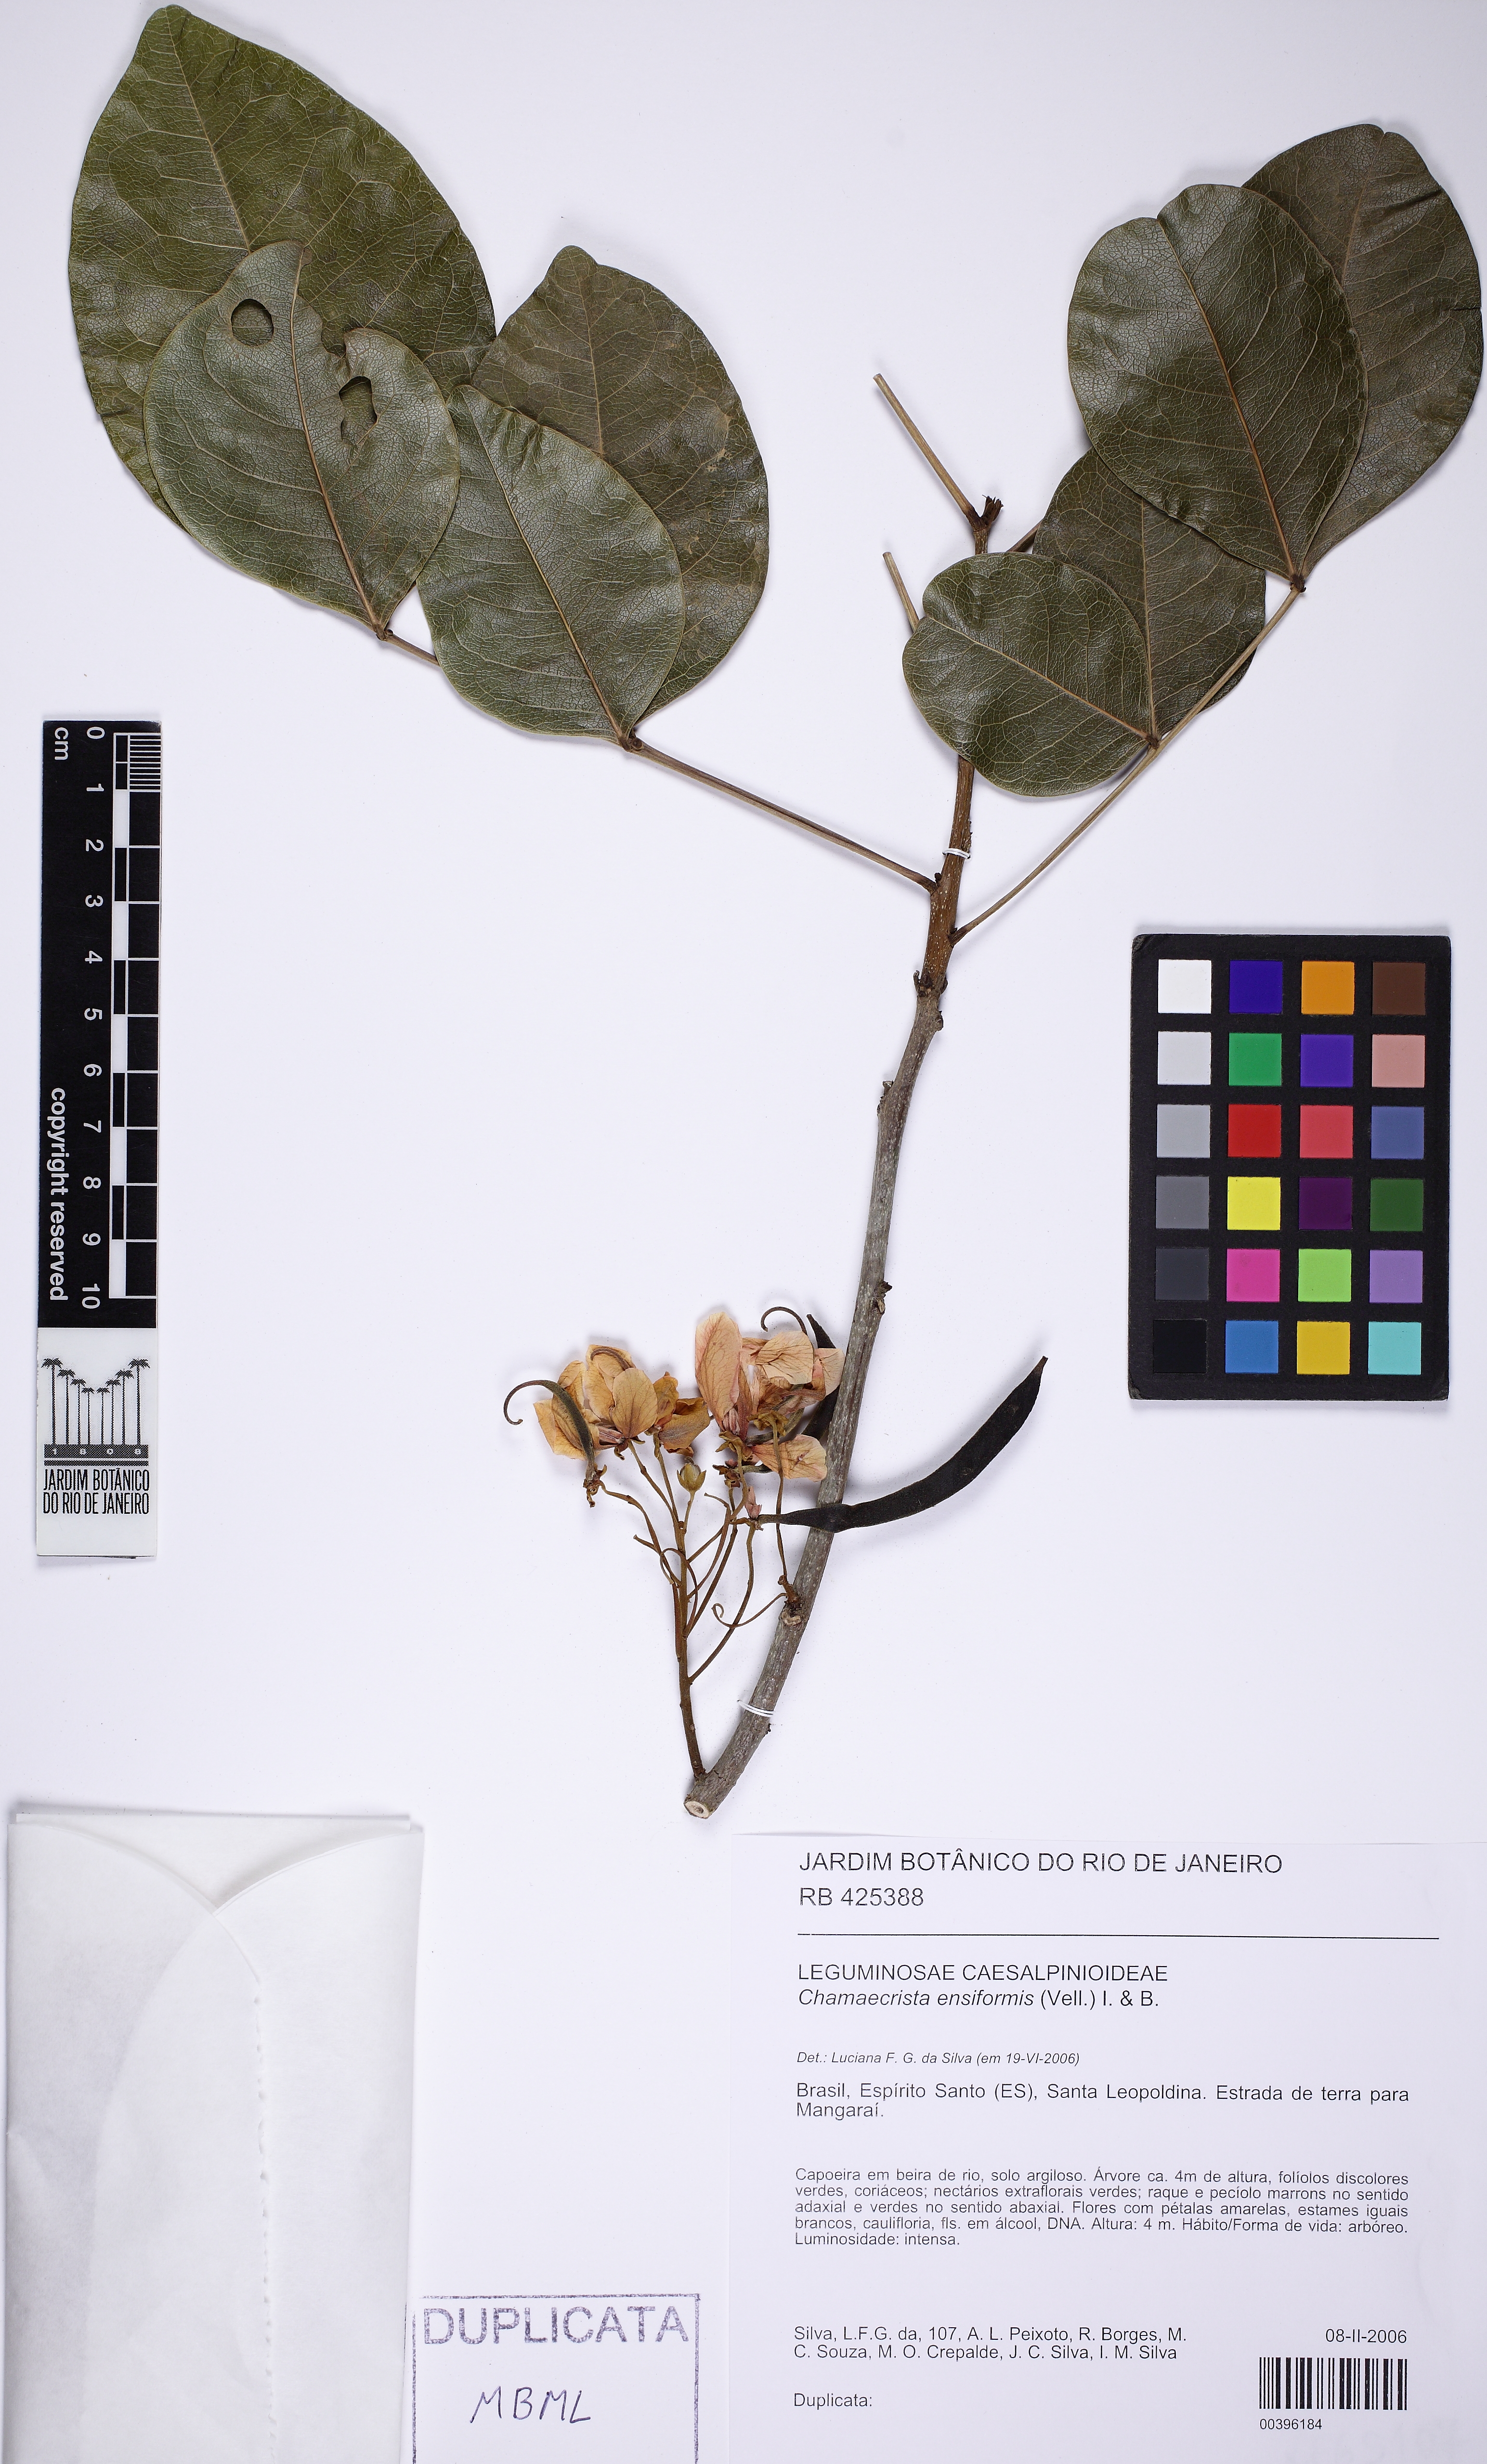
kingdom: Plantae
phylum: Tracheophyta
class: Magnoliopsida
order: Fabales
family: Fabaceae
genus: Chamaecrista
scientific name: Chamaecrista ensiformis
